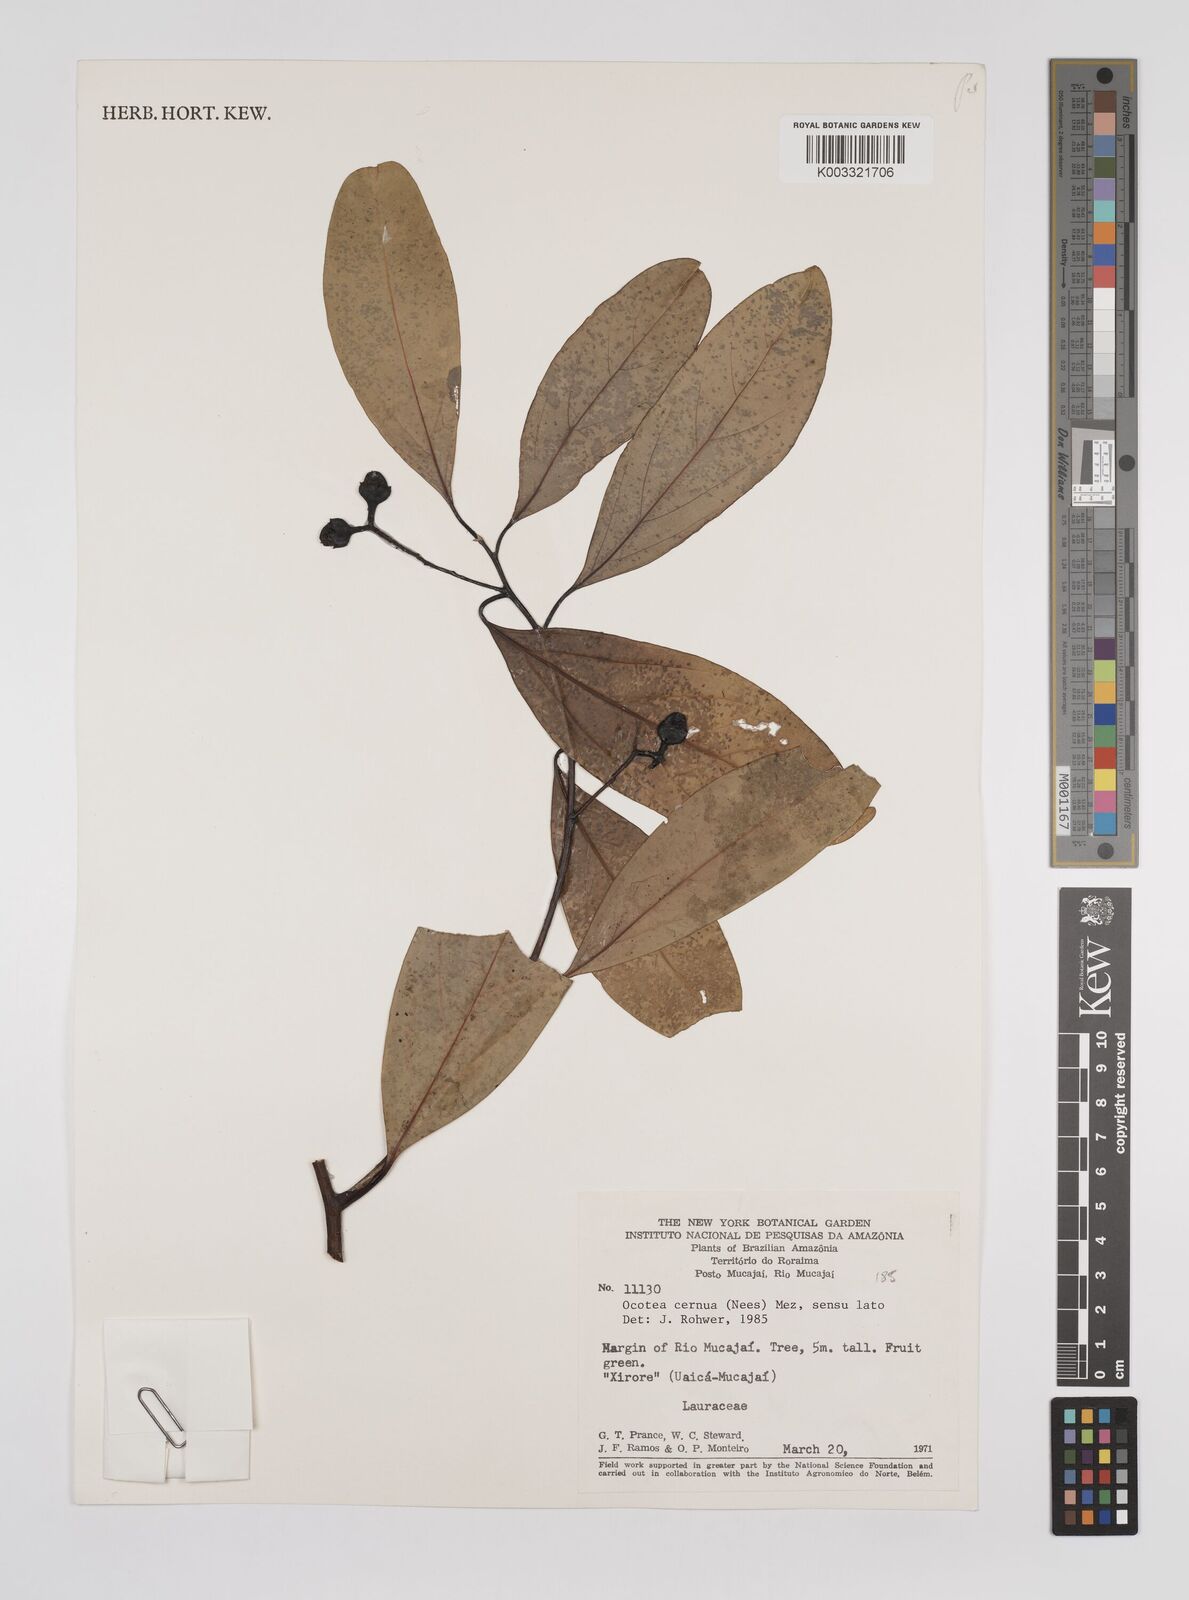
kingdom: Plantae
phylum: Tracheophyta
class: Magnoliopsida
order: Laurales
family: Lauraceae
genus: Ocotea
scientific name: Ocotea leptobotra
